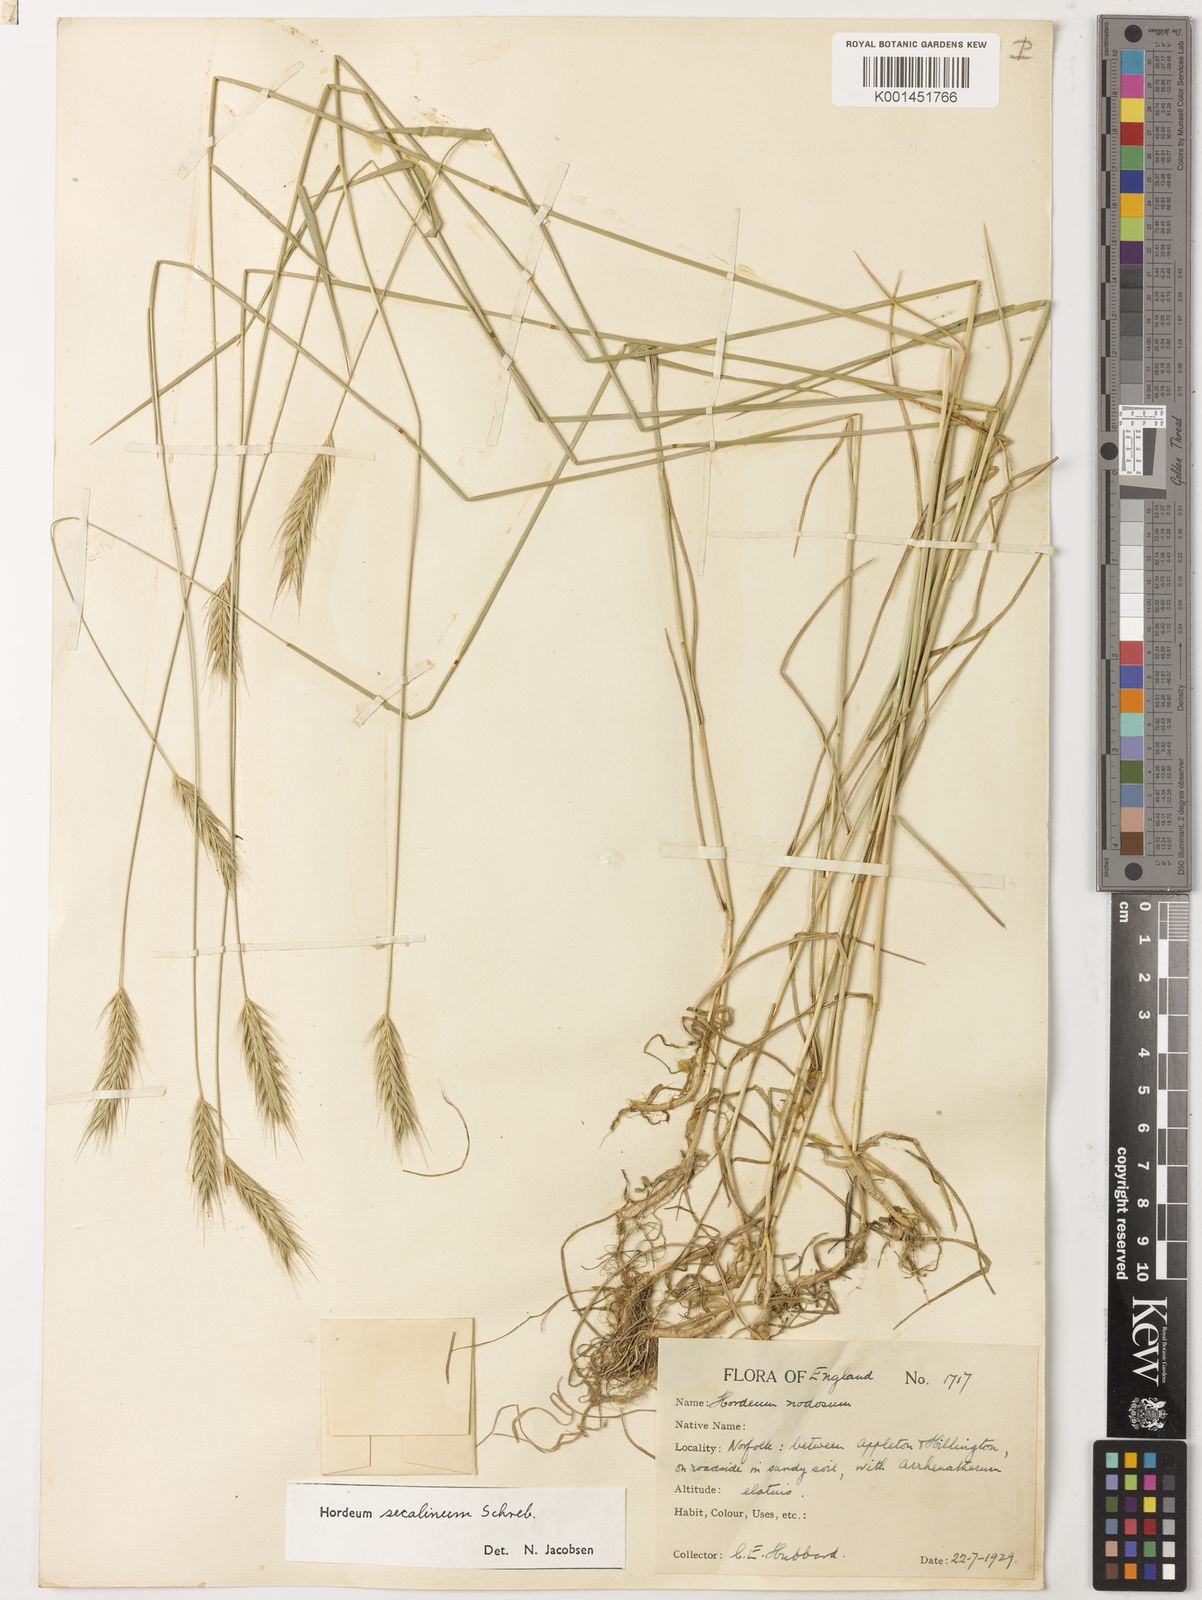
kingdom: Plantae
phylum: Tracheophyta
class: Liliopsida
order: Poales
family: Poaceae
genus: Hordeum
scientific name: Hordeum secalinum
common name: Meadow barley
